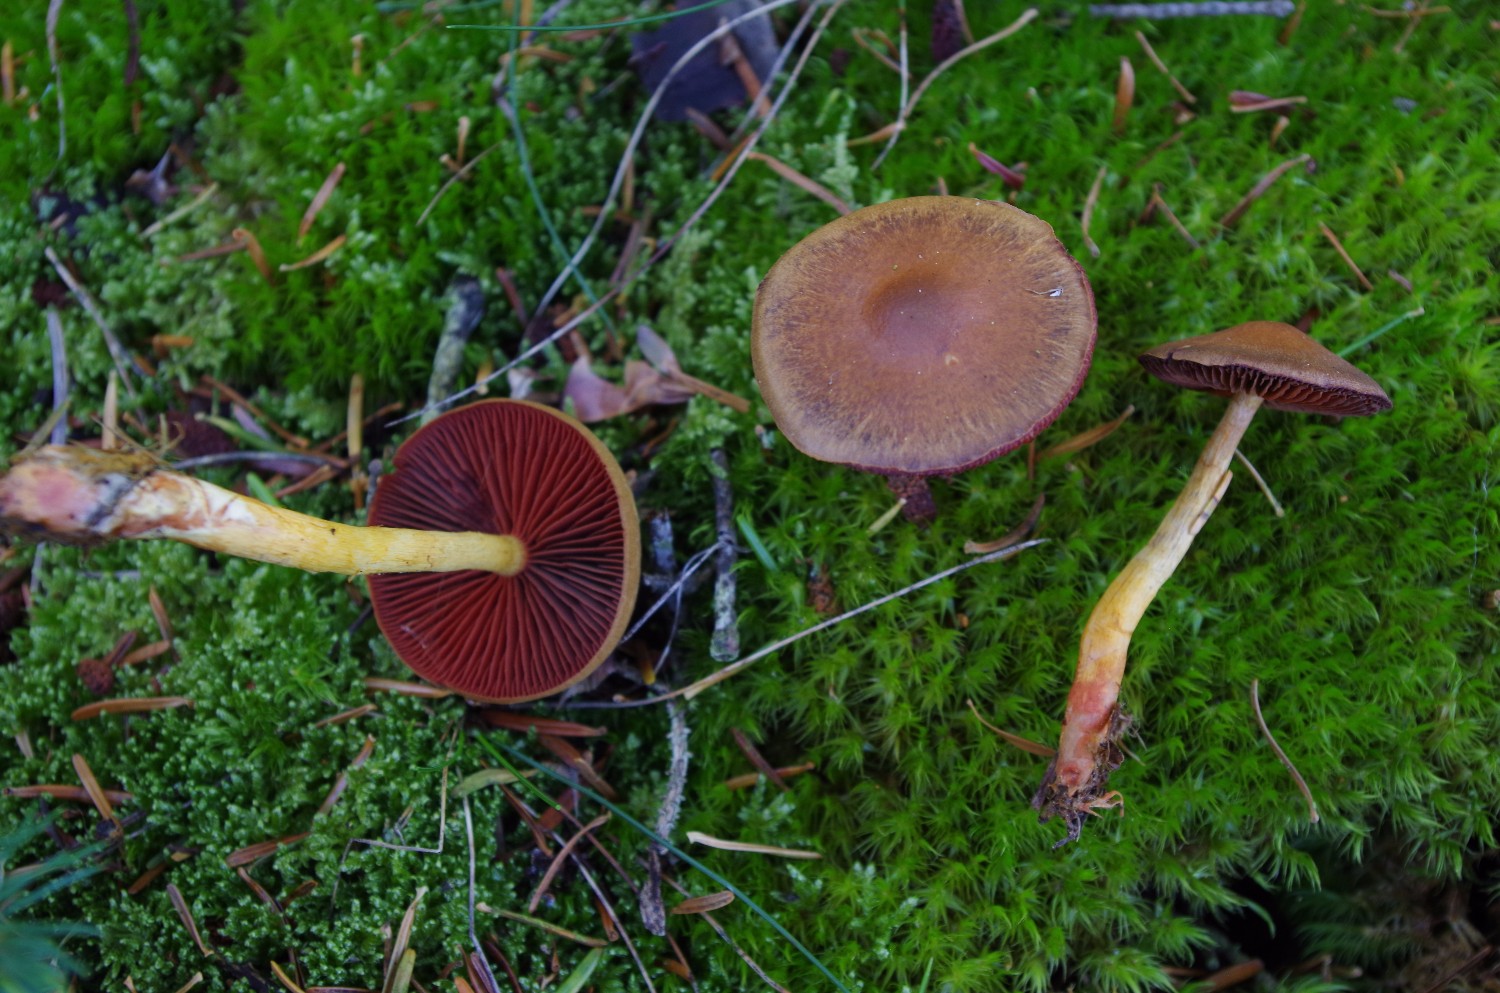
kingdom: Fungi
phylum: Basidiomycota
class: Agaricomycetes
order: Agaricales
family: Cortinariaceae
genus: Cortinarius
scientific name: Cortinarius
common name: cinnoberbladet slørhat
